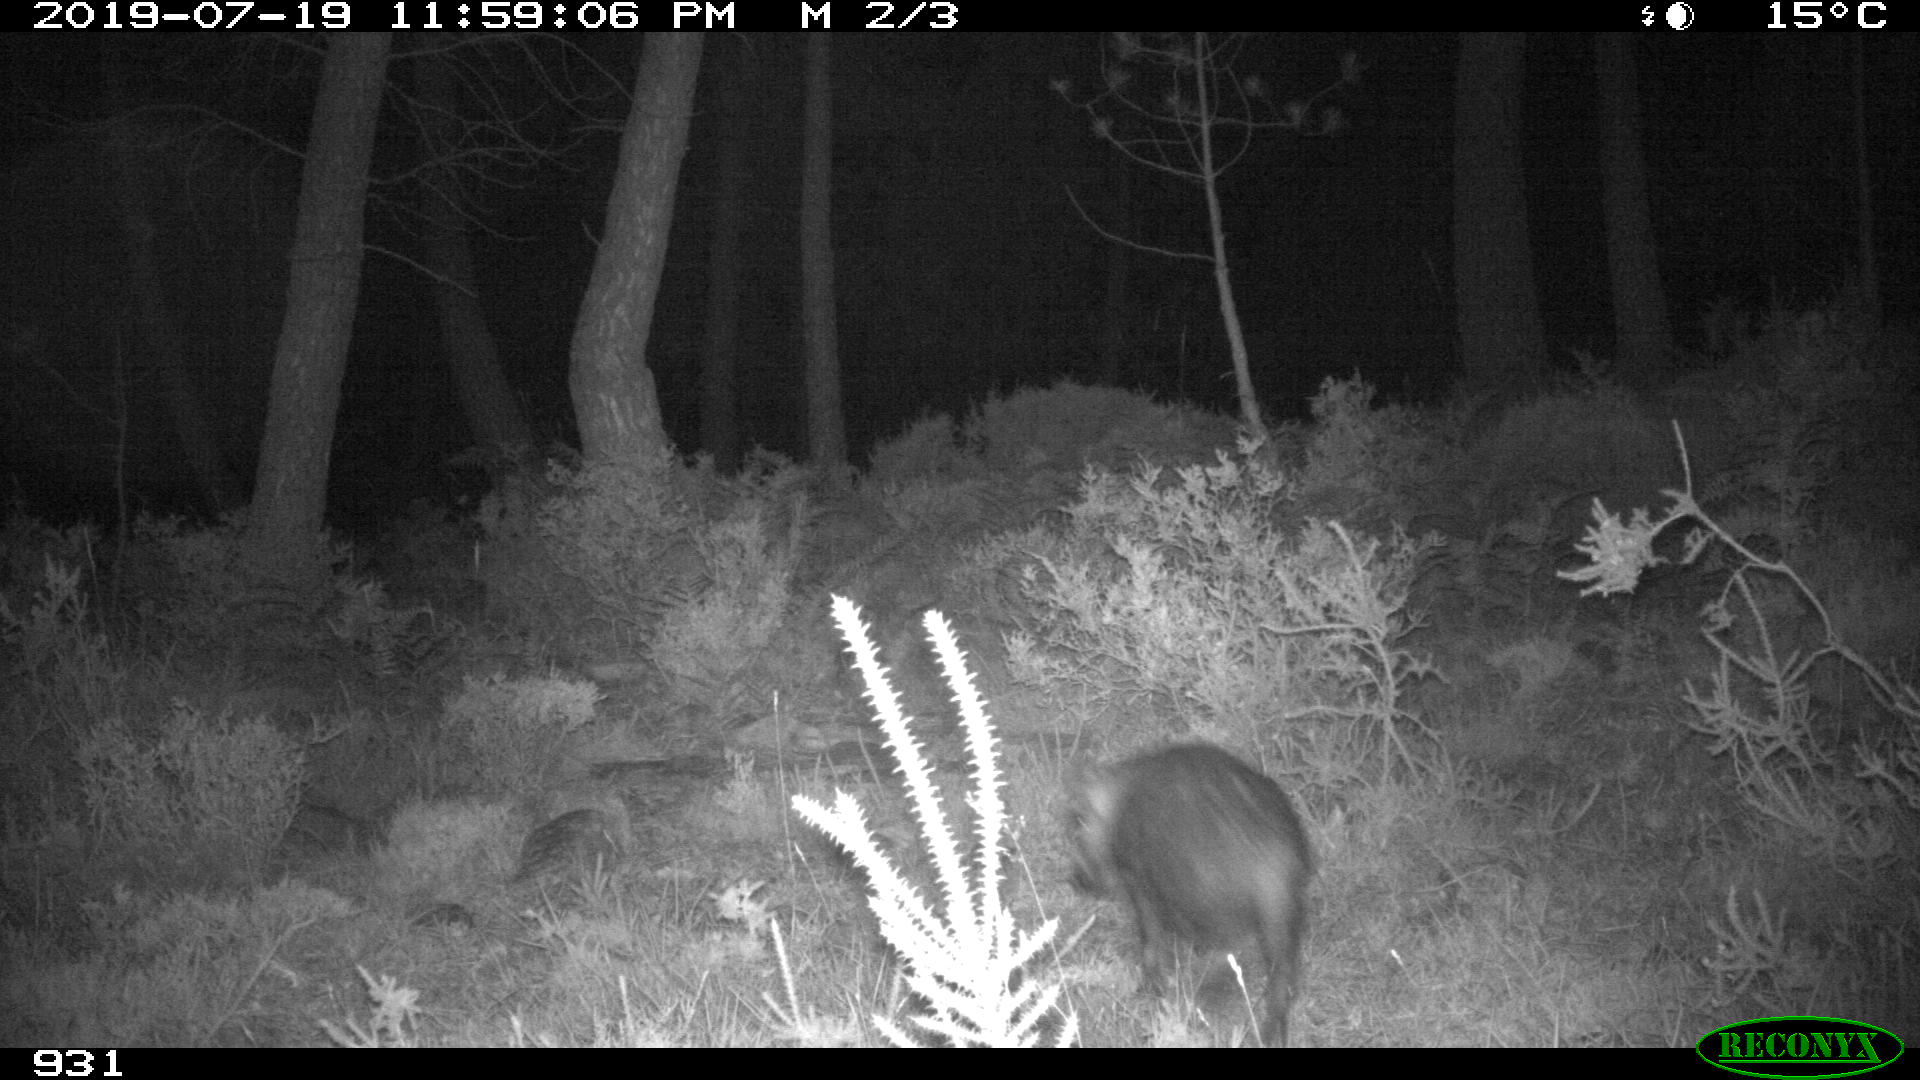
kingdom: Animalia
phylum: Chordata
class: Mammalia
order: Artiodactyla
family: Suidae
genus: Sus
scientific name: Sus scrofa
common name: Wild boar
